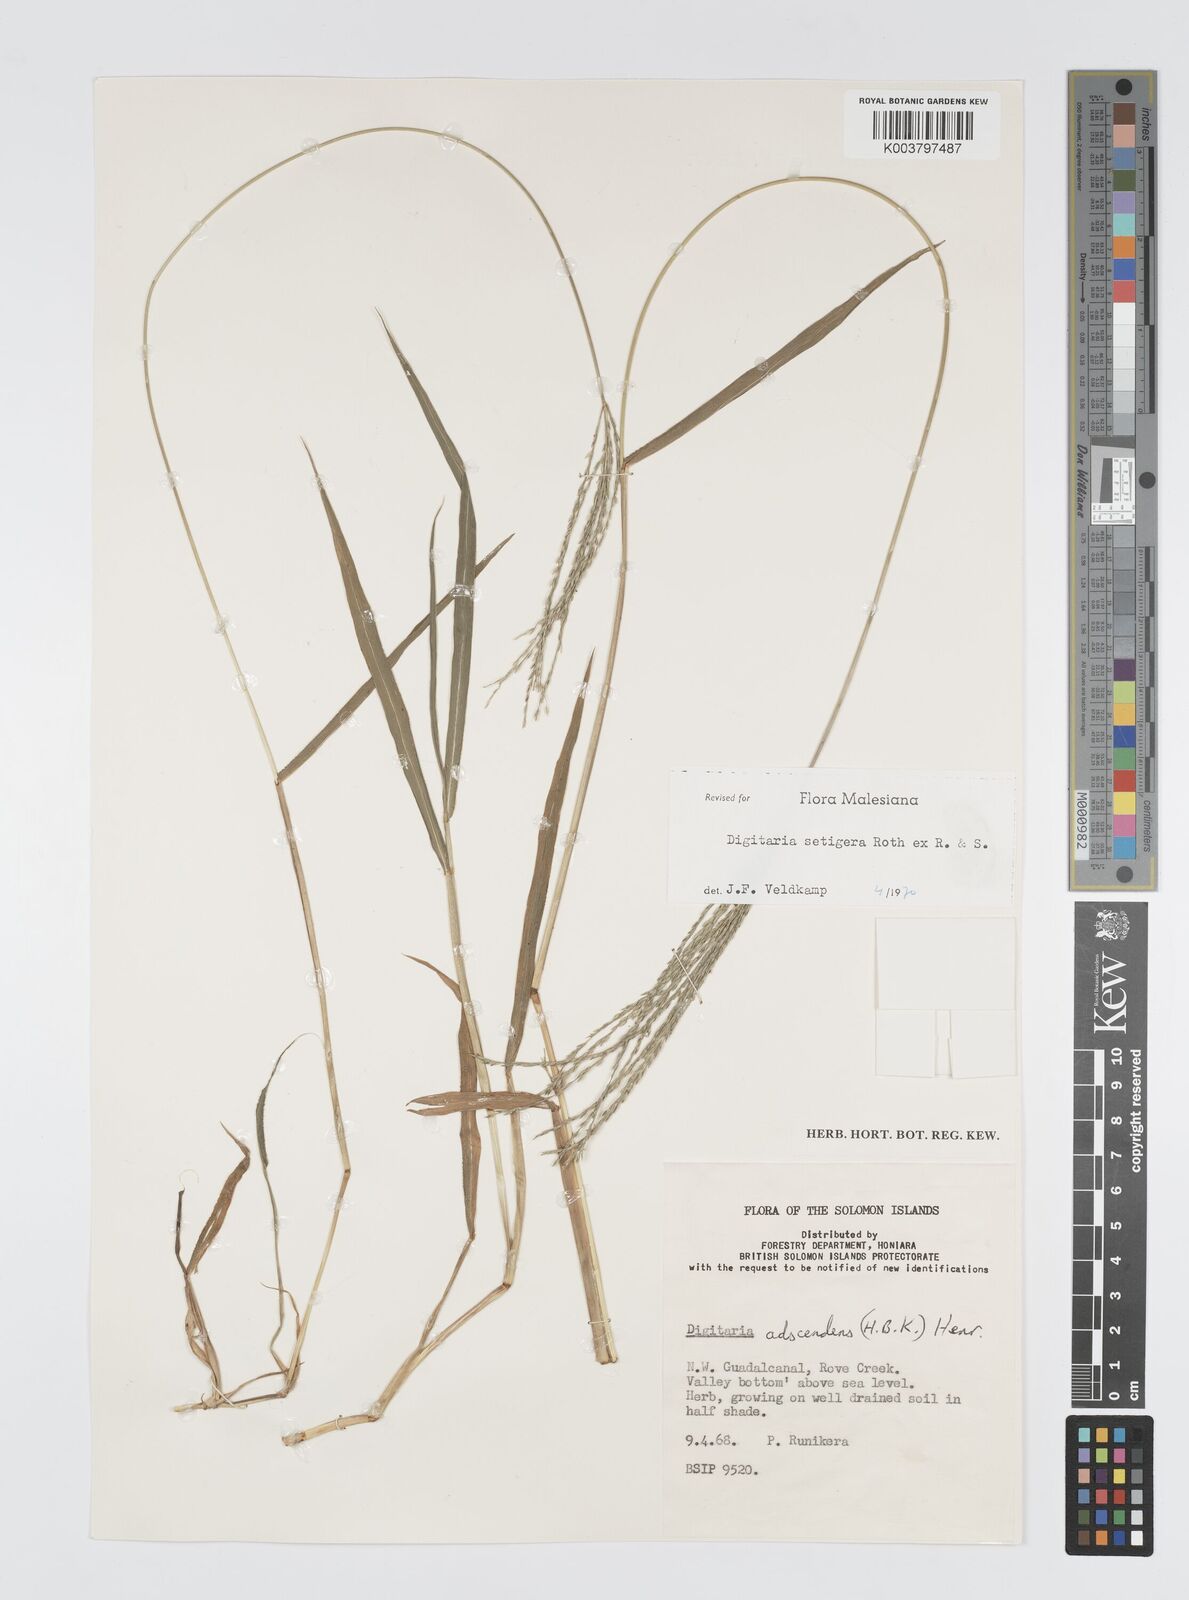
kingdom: Plantae
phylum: Tracheophyta
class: Liliopsida
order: Poales
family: Poaceae
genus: Digitaria
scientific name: Digitaria setigera
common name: East indian crabgrass
